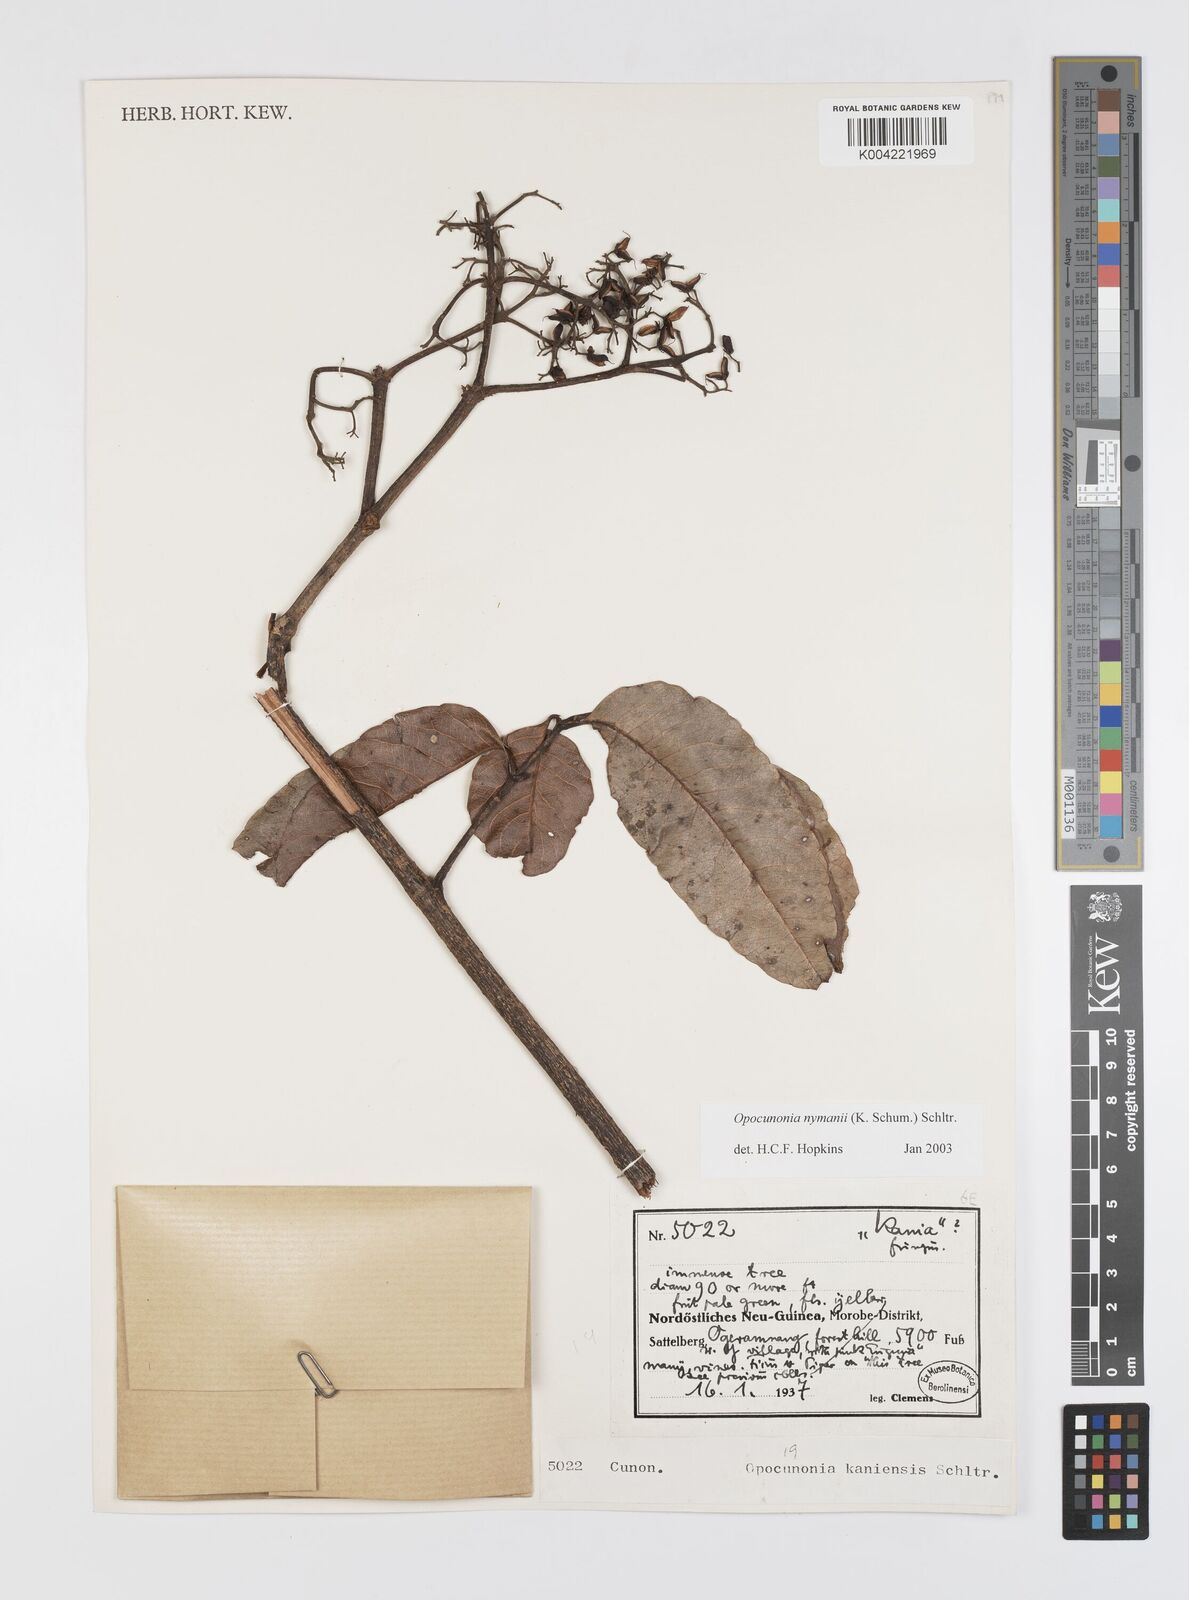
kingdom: Plantae
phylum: Tracheophyta
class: Magnoliopsida
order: Oxalidales
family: Cunoniaceae
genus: Opocunonia
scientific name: Opocunonia nymanii
